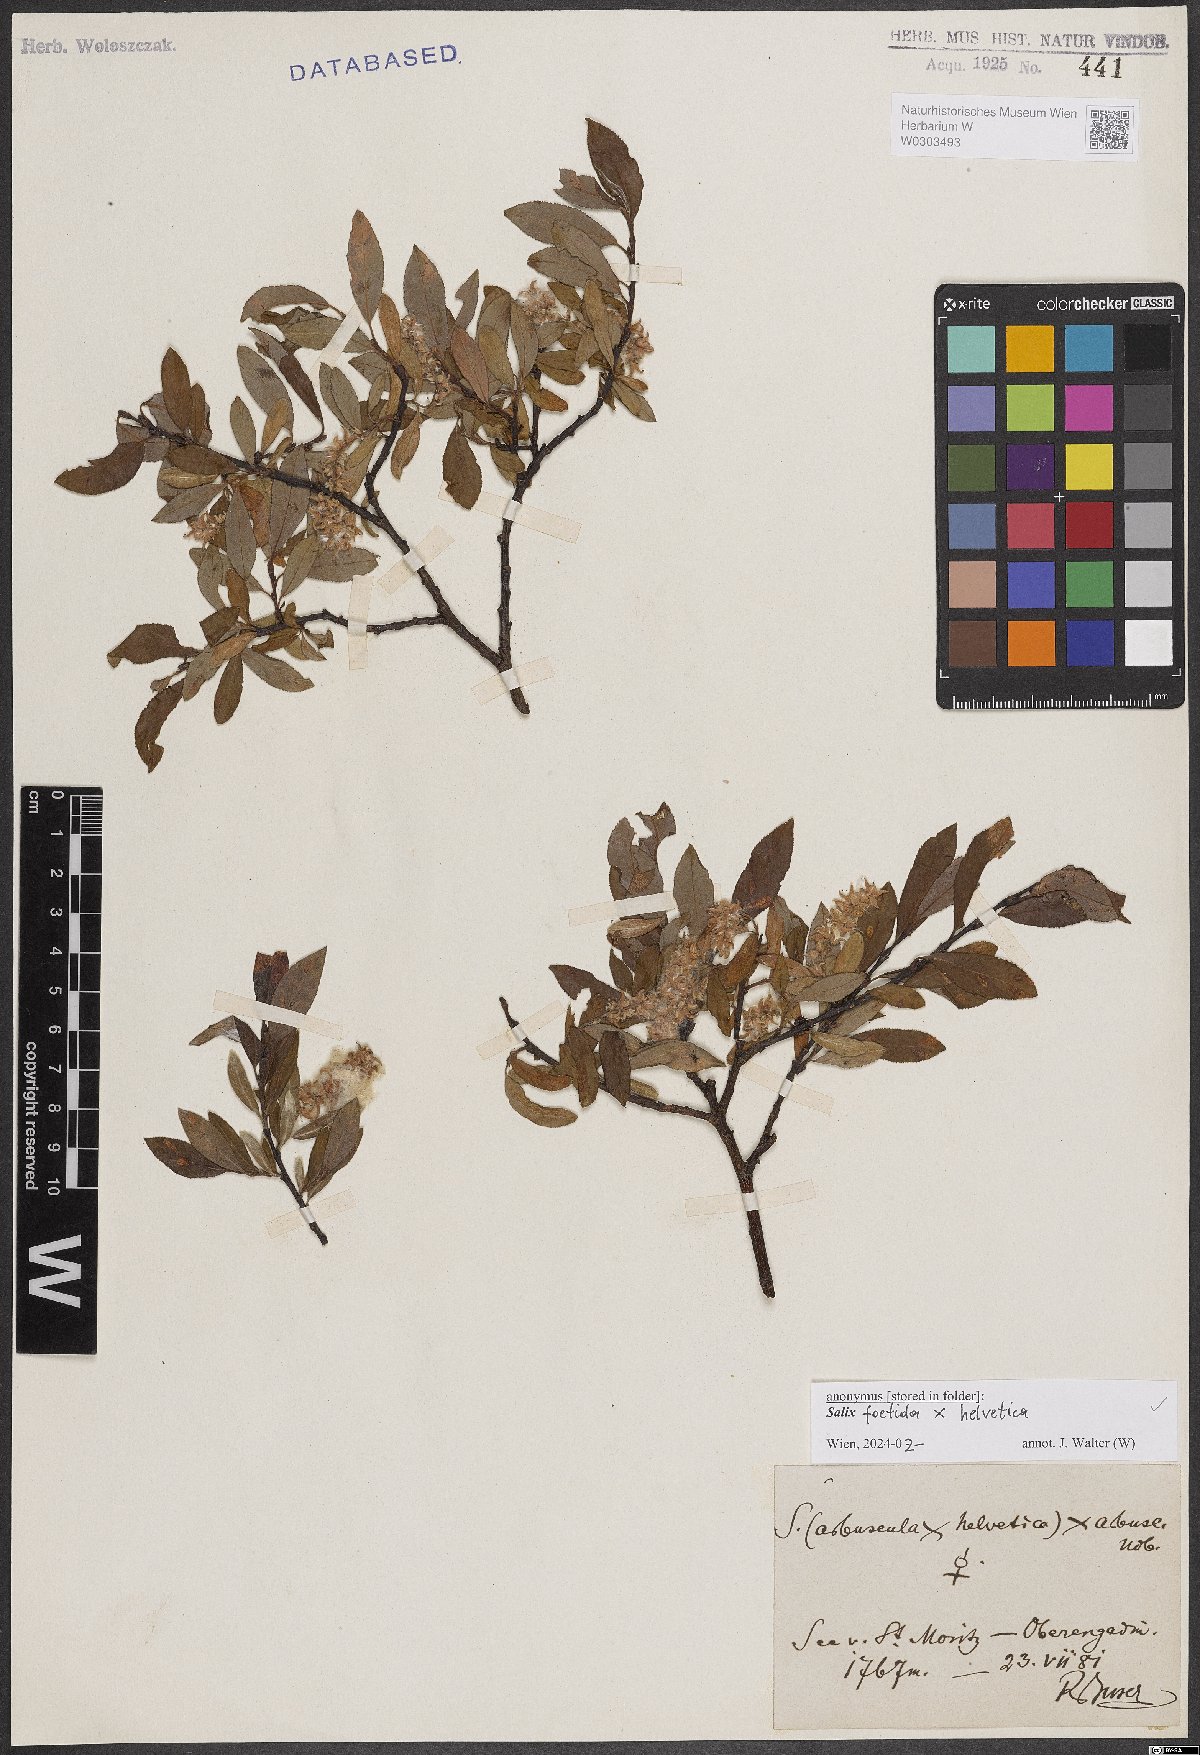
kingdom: Plantae
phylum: Tracheophyta
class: Magnoliopsida
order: Malpighiales
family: Salicaceae
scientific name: Salicaceae
